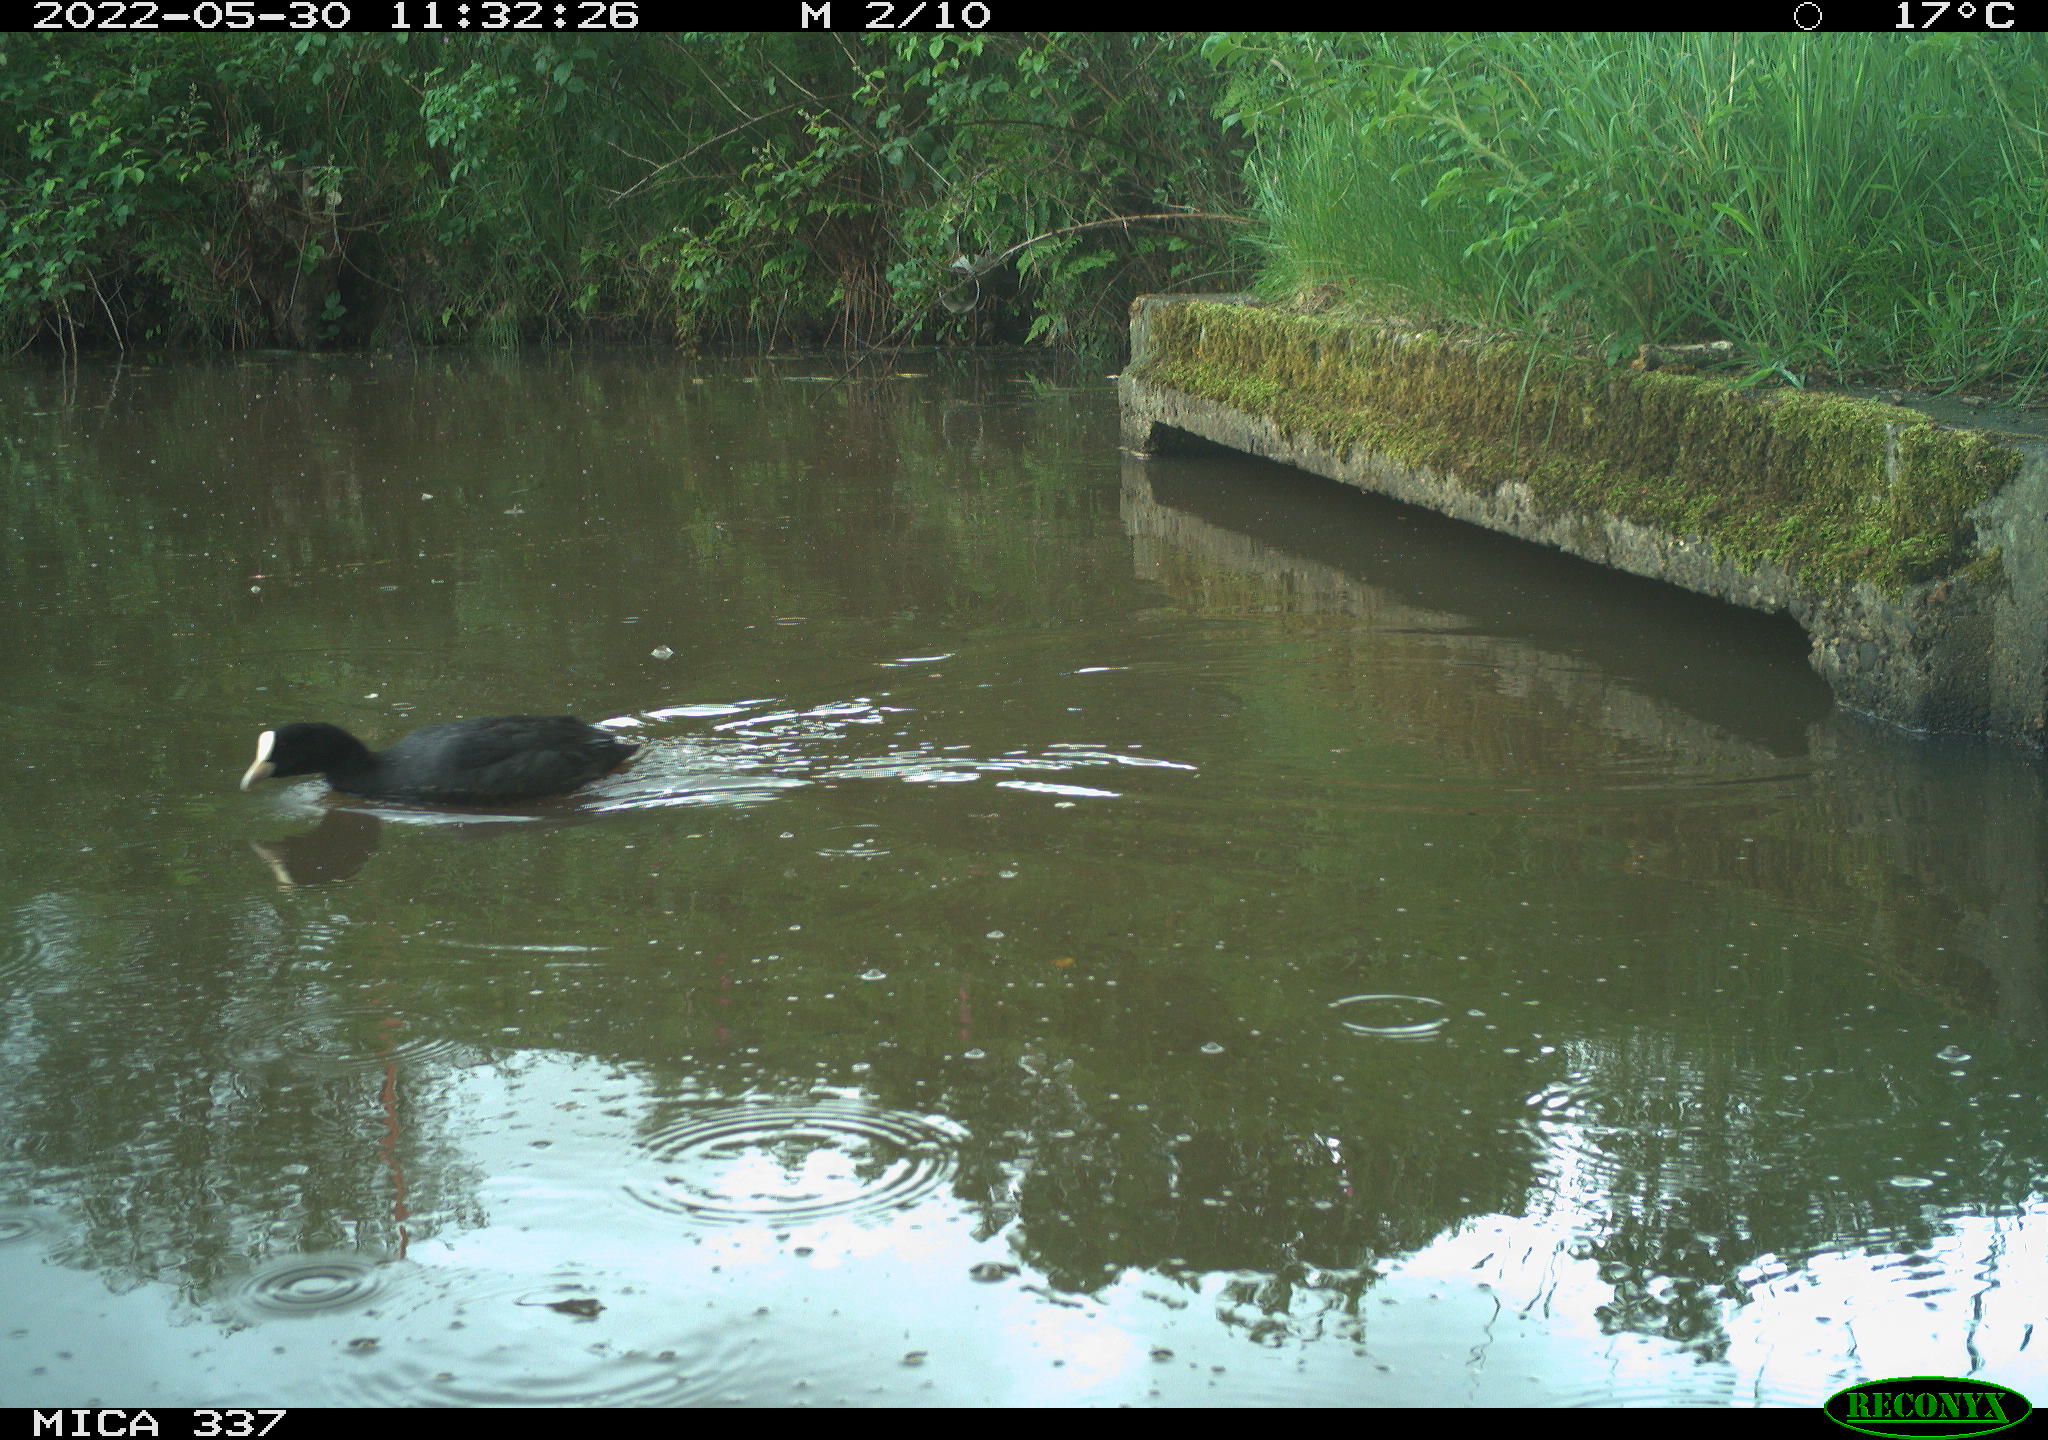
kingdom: Animalia
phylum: Chordata
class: Aves
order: Gruiformes
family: Rallidae
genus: Fulica
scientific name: Fulica atra
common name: Eurasian coot
